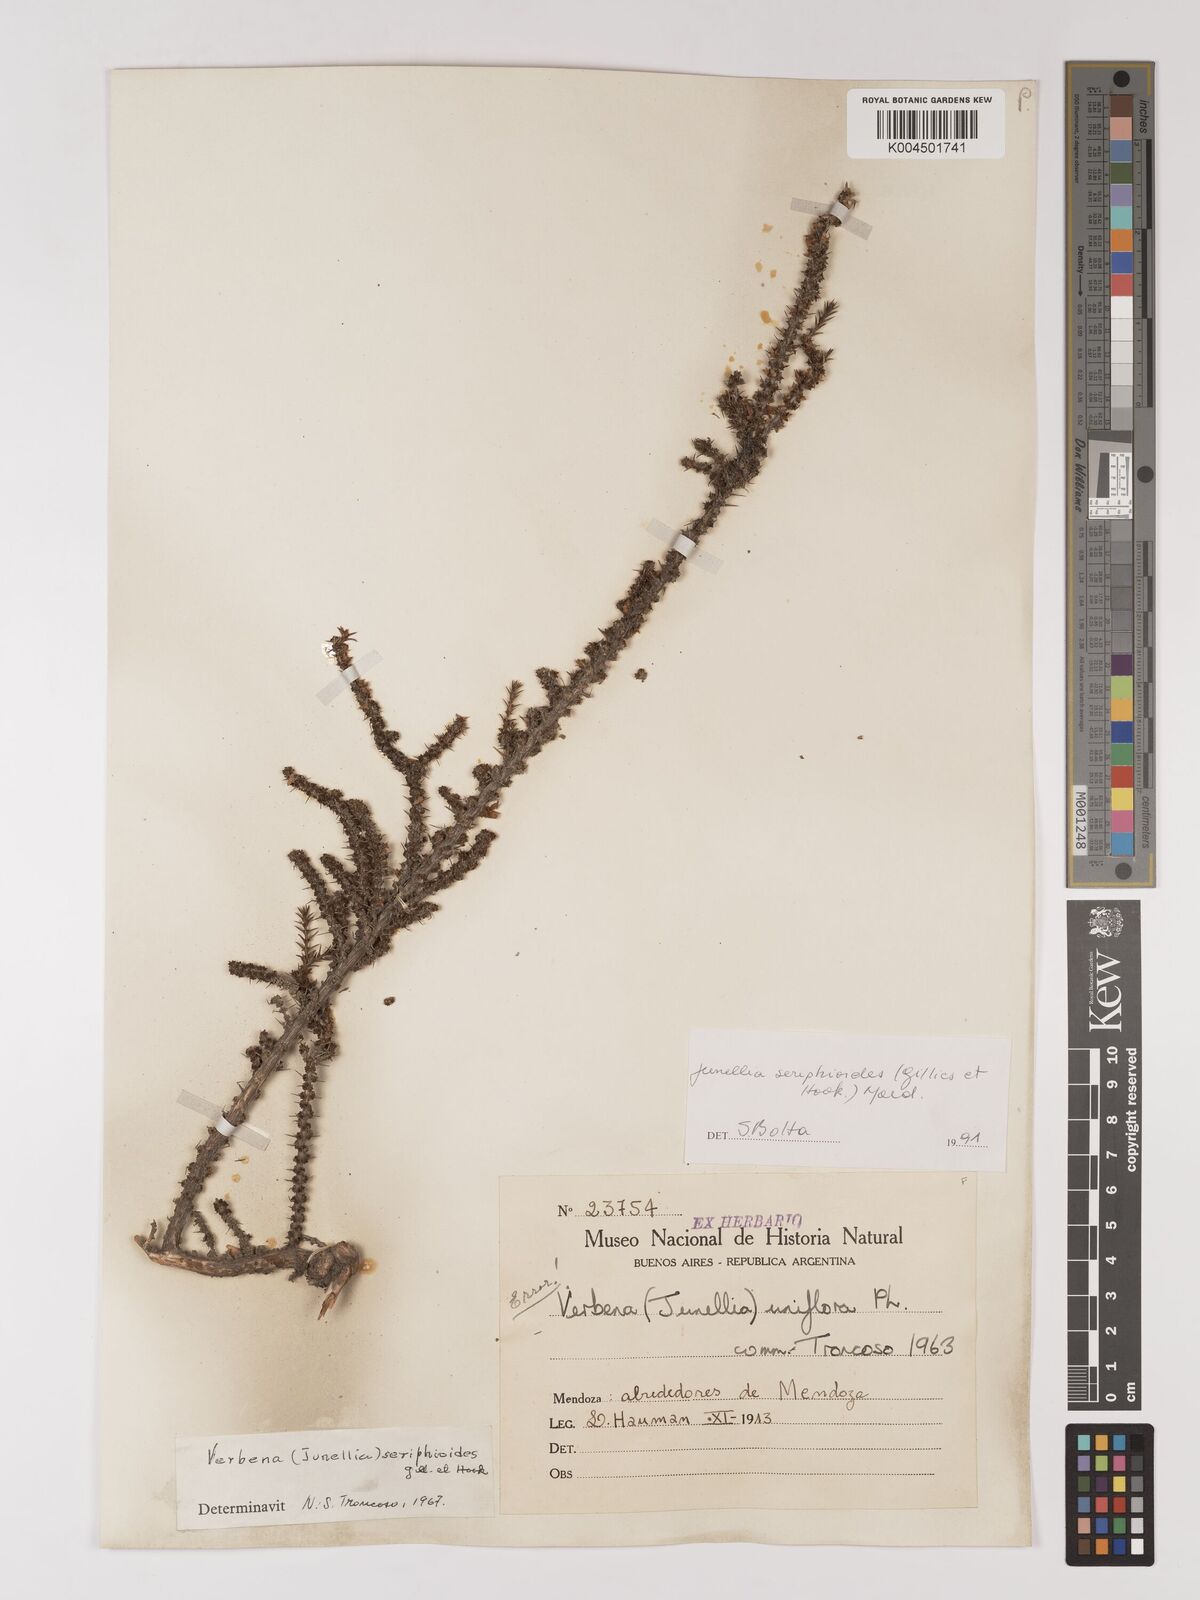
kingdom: Plantae
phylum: Tracheophyta
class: Magnoliopsida
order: Lamiales
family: Verbenaceae
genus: Junellia
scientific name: Junellia seriphioides
